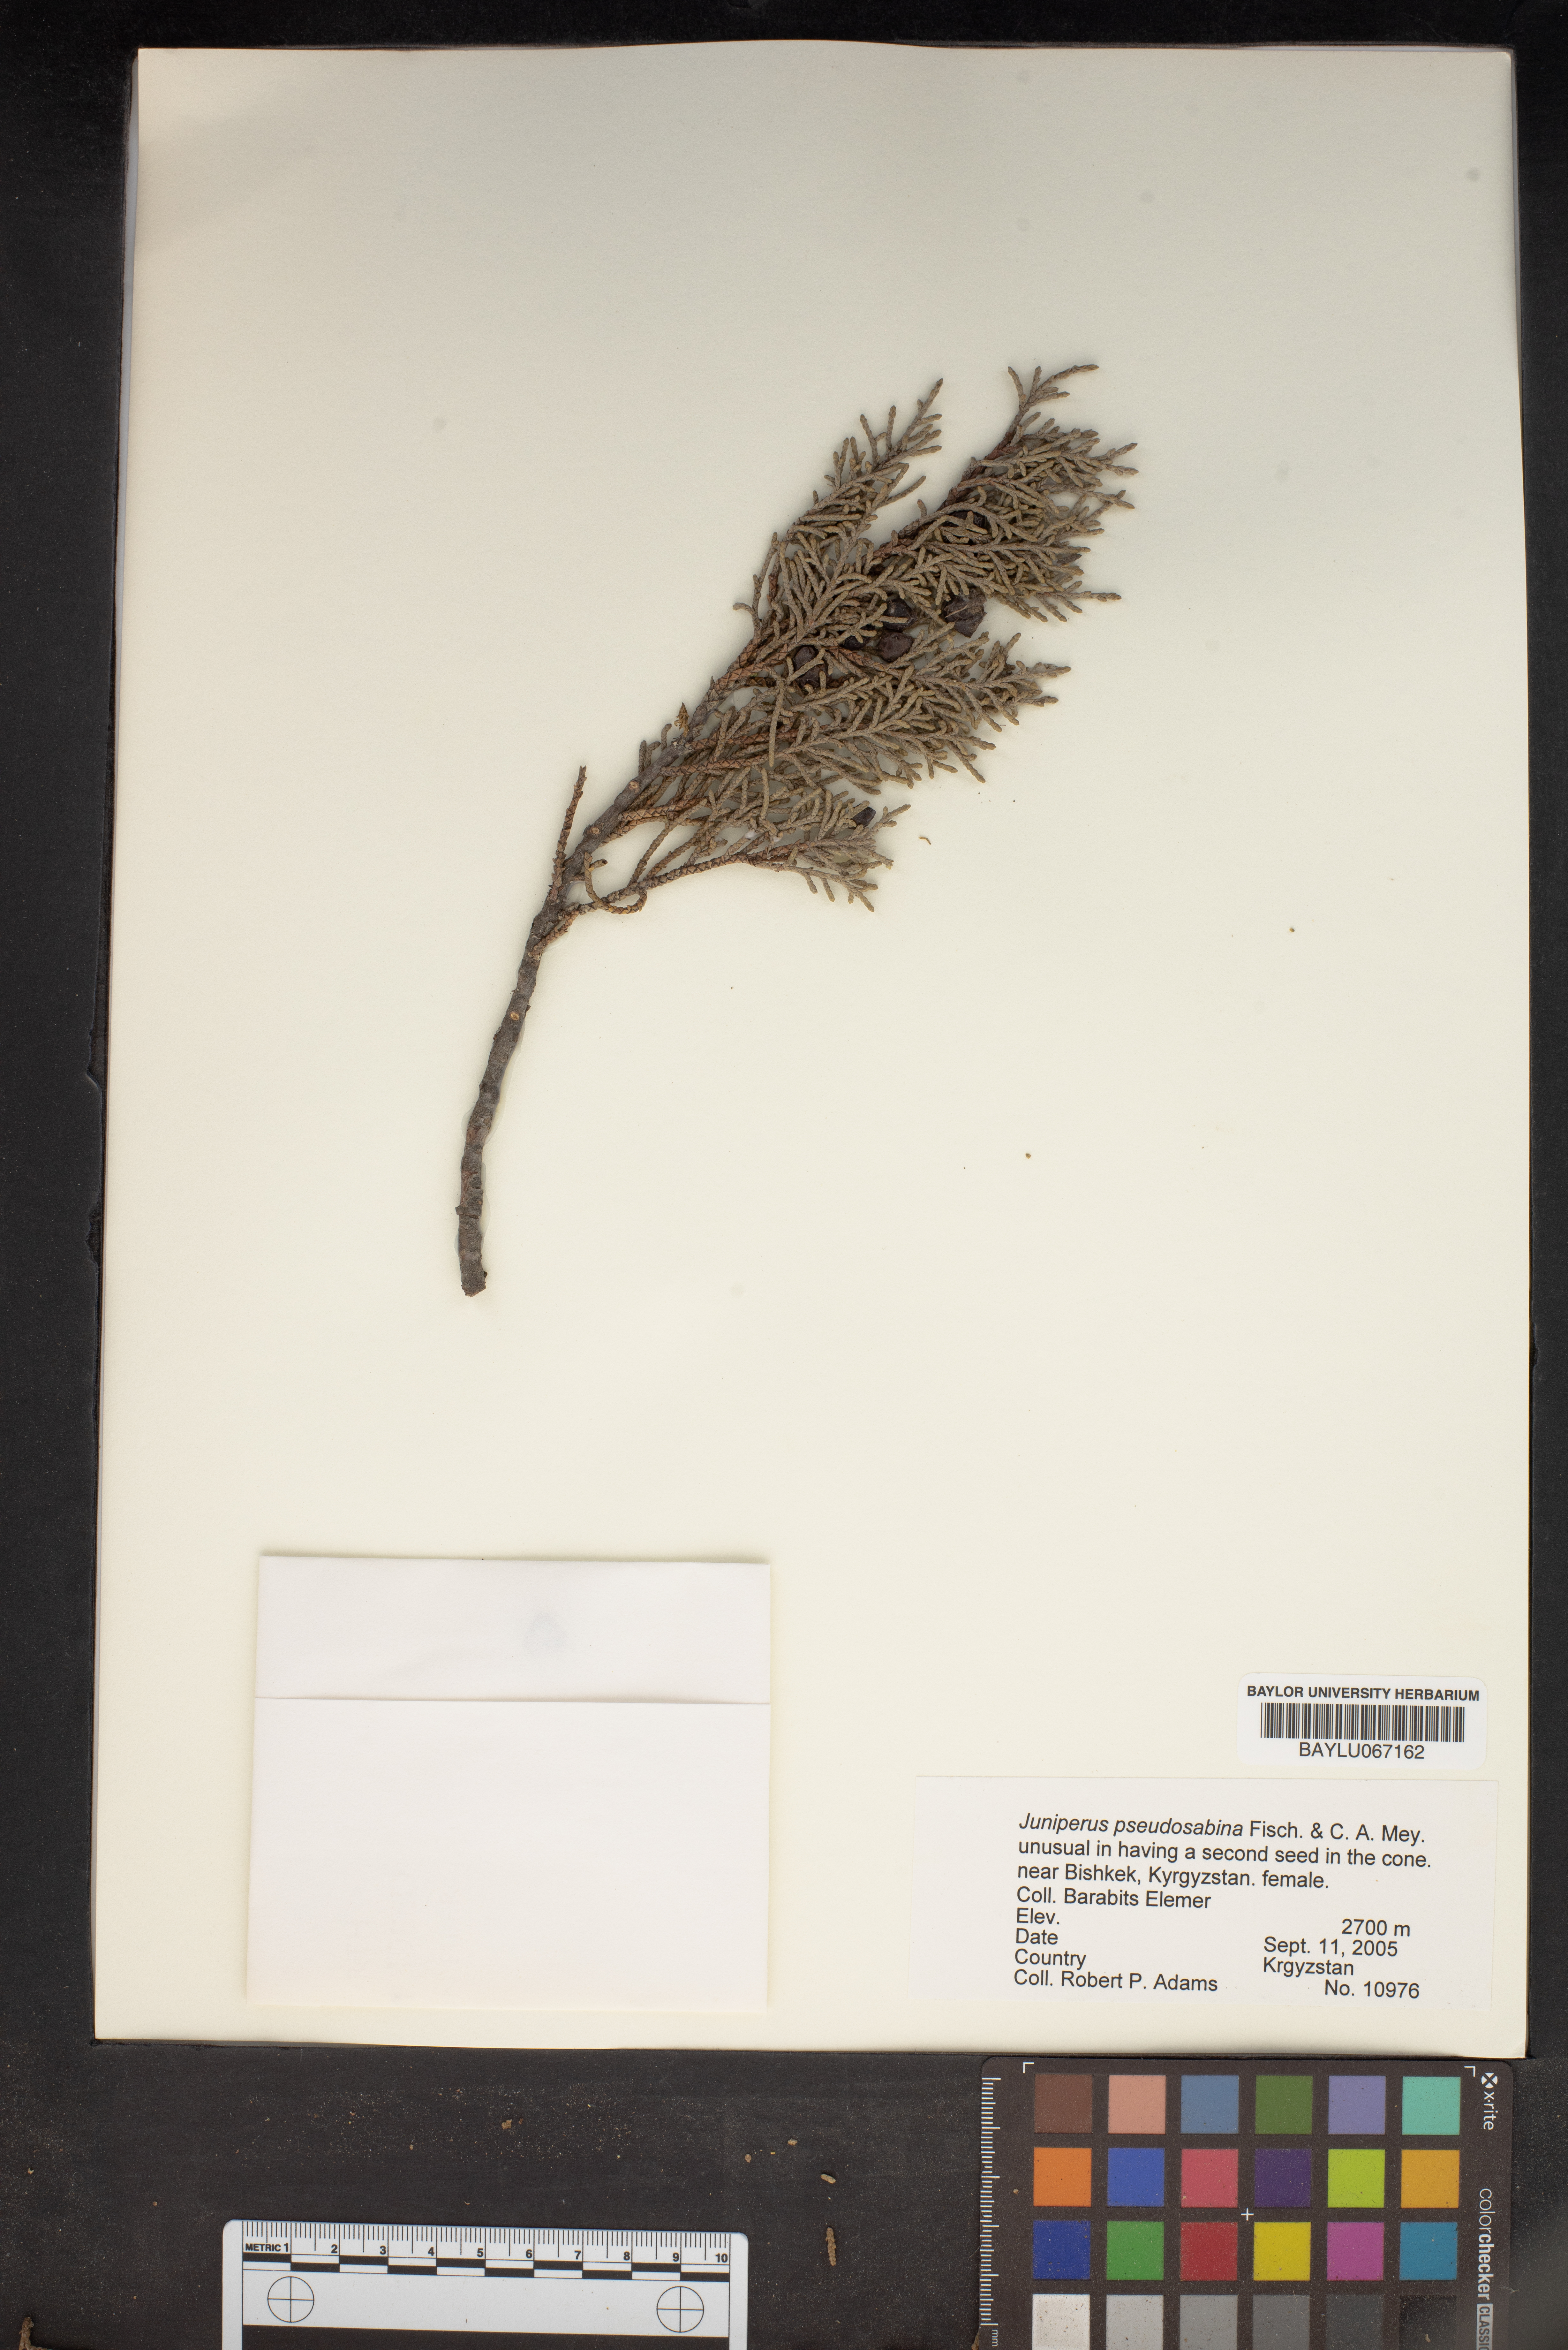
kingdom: Plantae
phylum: Tracheophyta
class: Pinopsida
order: Pinales
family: Cupressaceae
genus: Juniperus
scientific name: Juniperus pseudosabina
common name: Turkestan juniper
